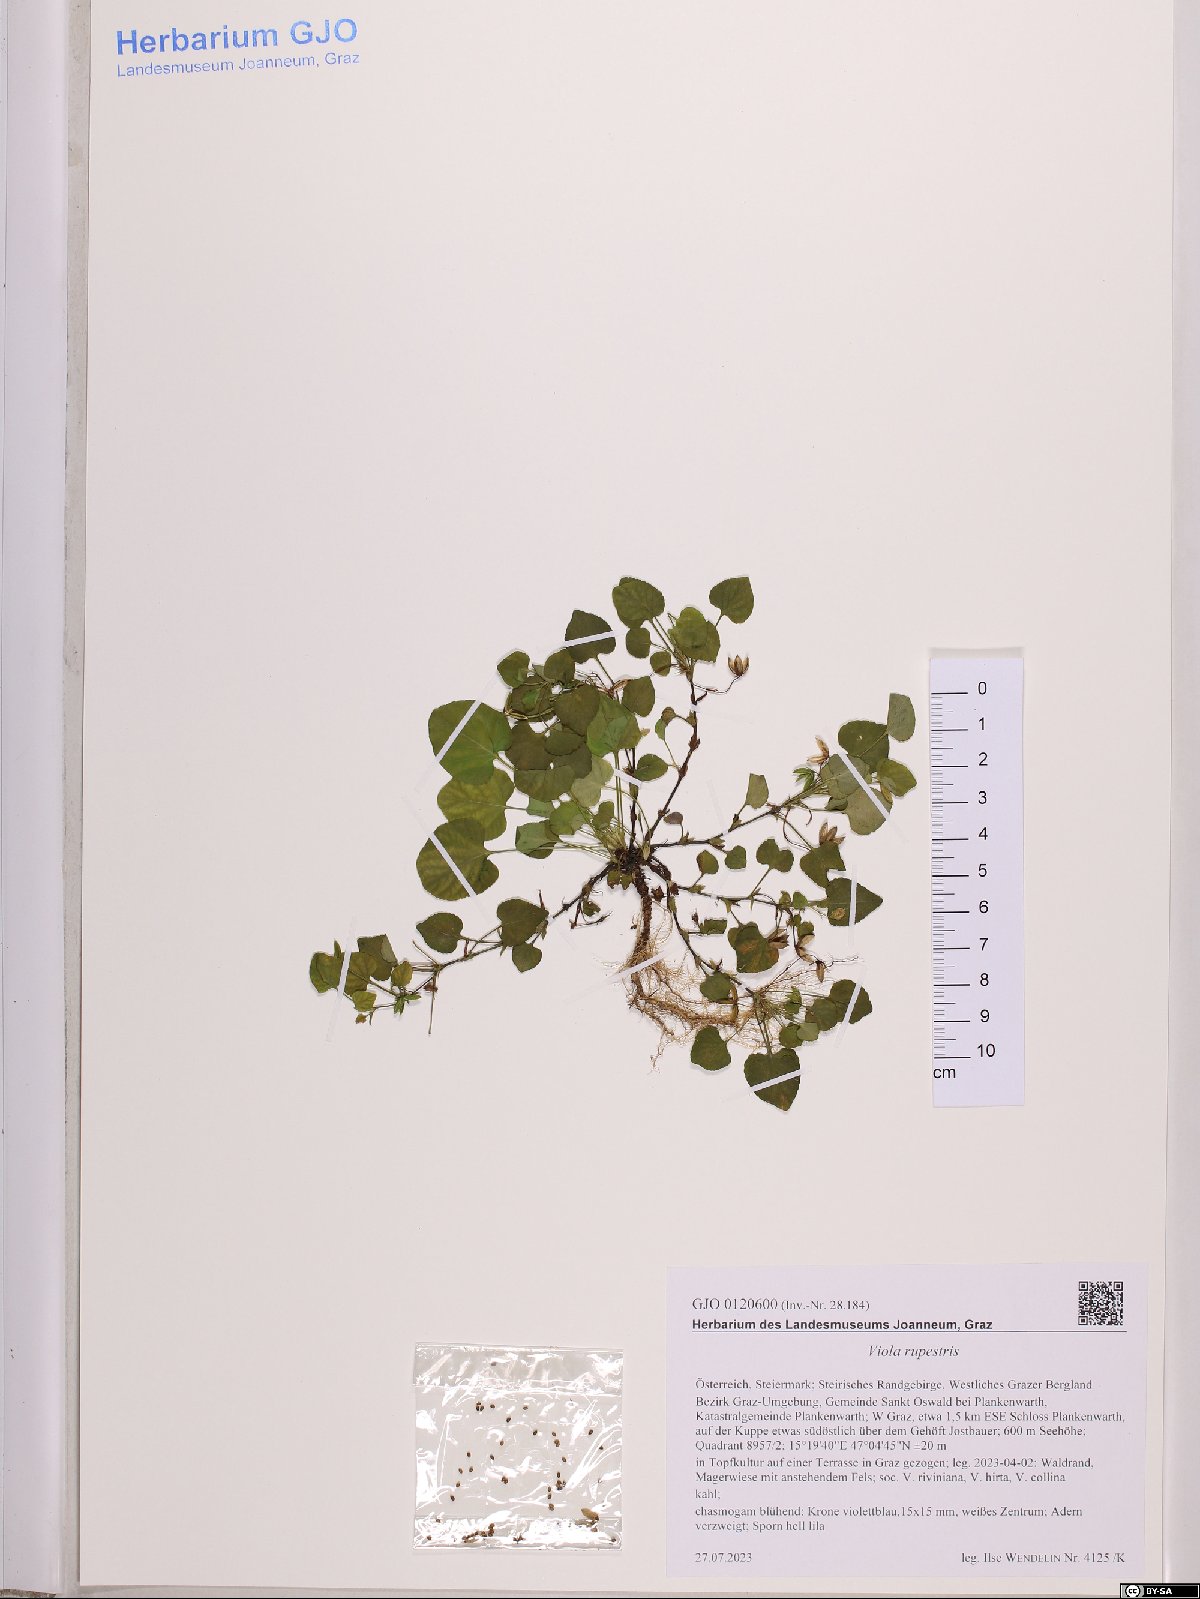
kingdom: Plantae
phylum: Tracheophyta
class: Magnoliopsida
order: Malpighiales
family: Violaceae
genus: Viola
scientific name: Viola rupestris
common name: Teesdale violet
